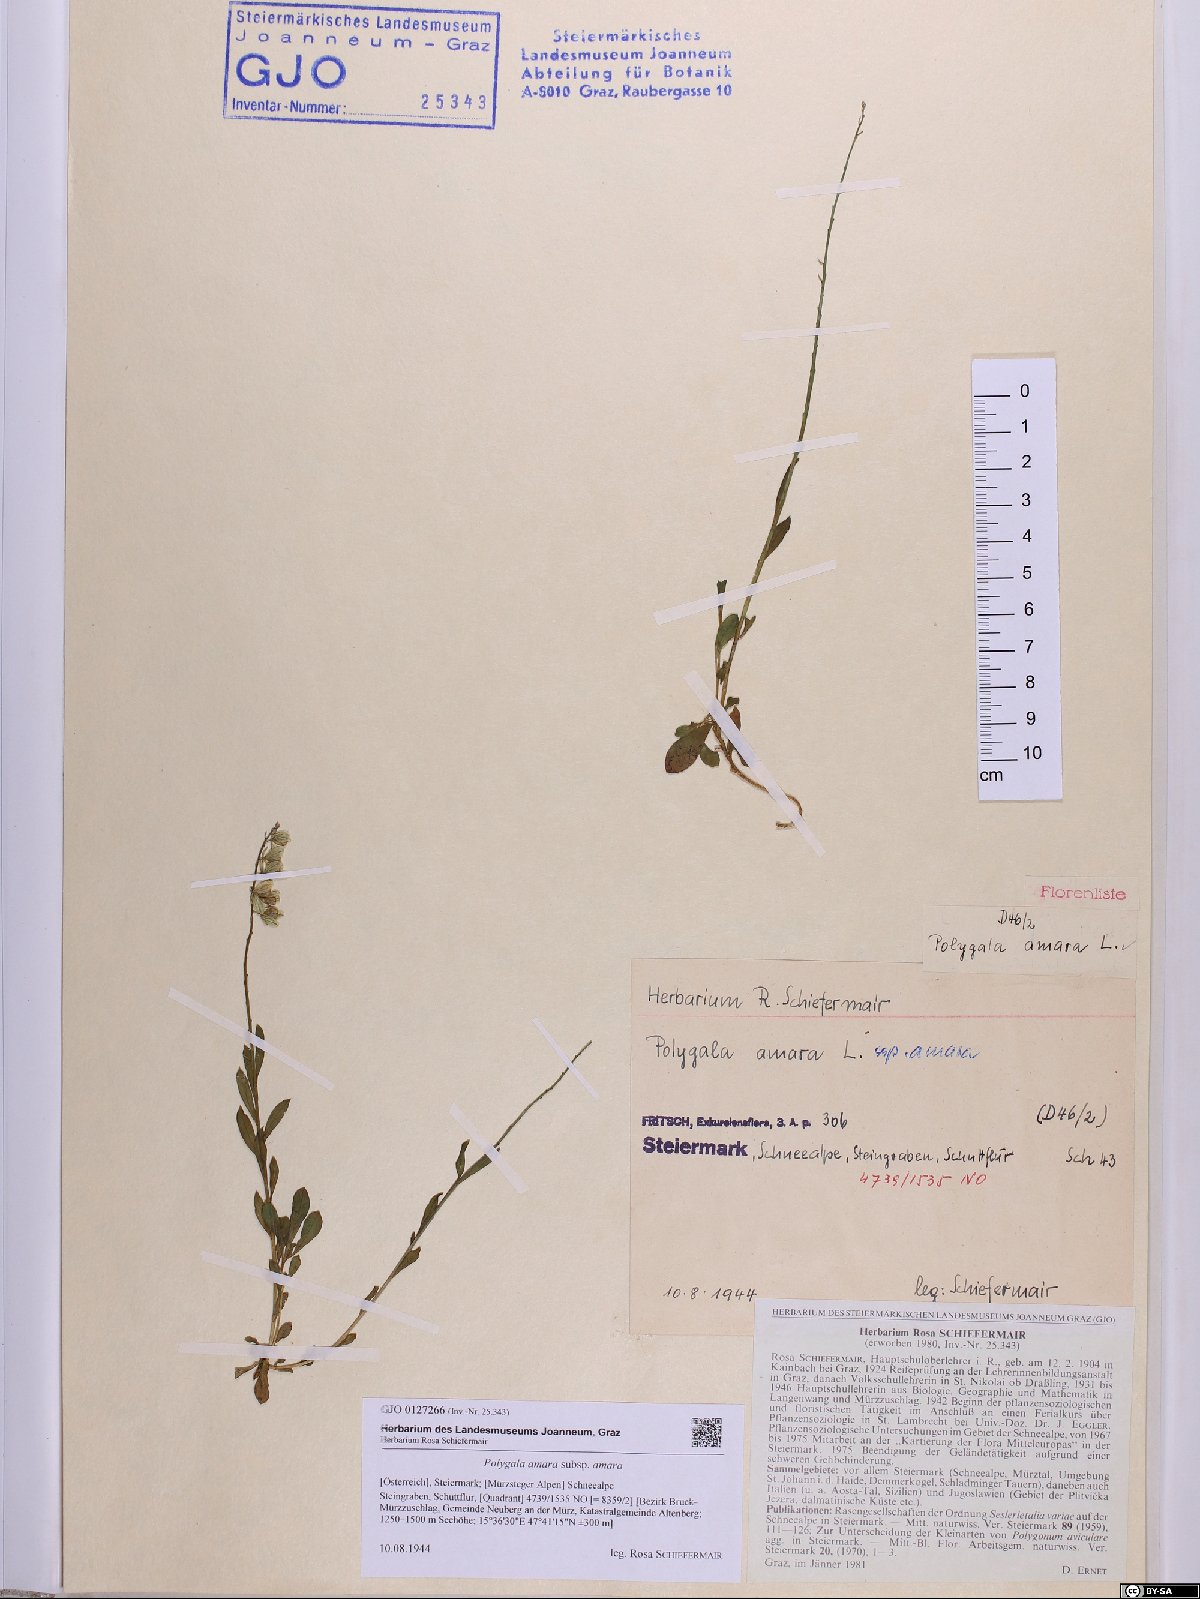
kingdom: Plantae
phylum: Tracheophyta
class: Magnoliopsida
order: Fabales
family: Polygalaceae
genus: Polygala
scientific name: Polygala amara
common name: Milkwort
